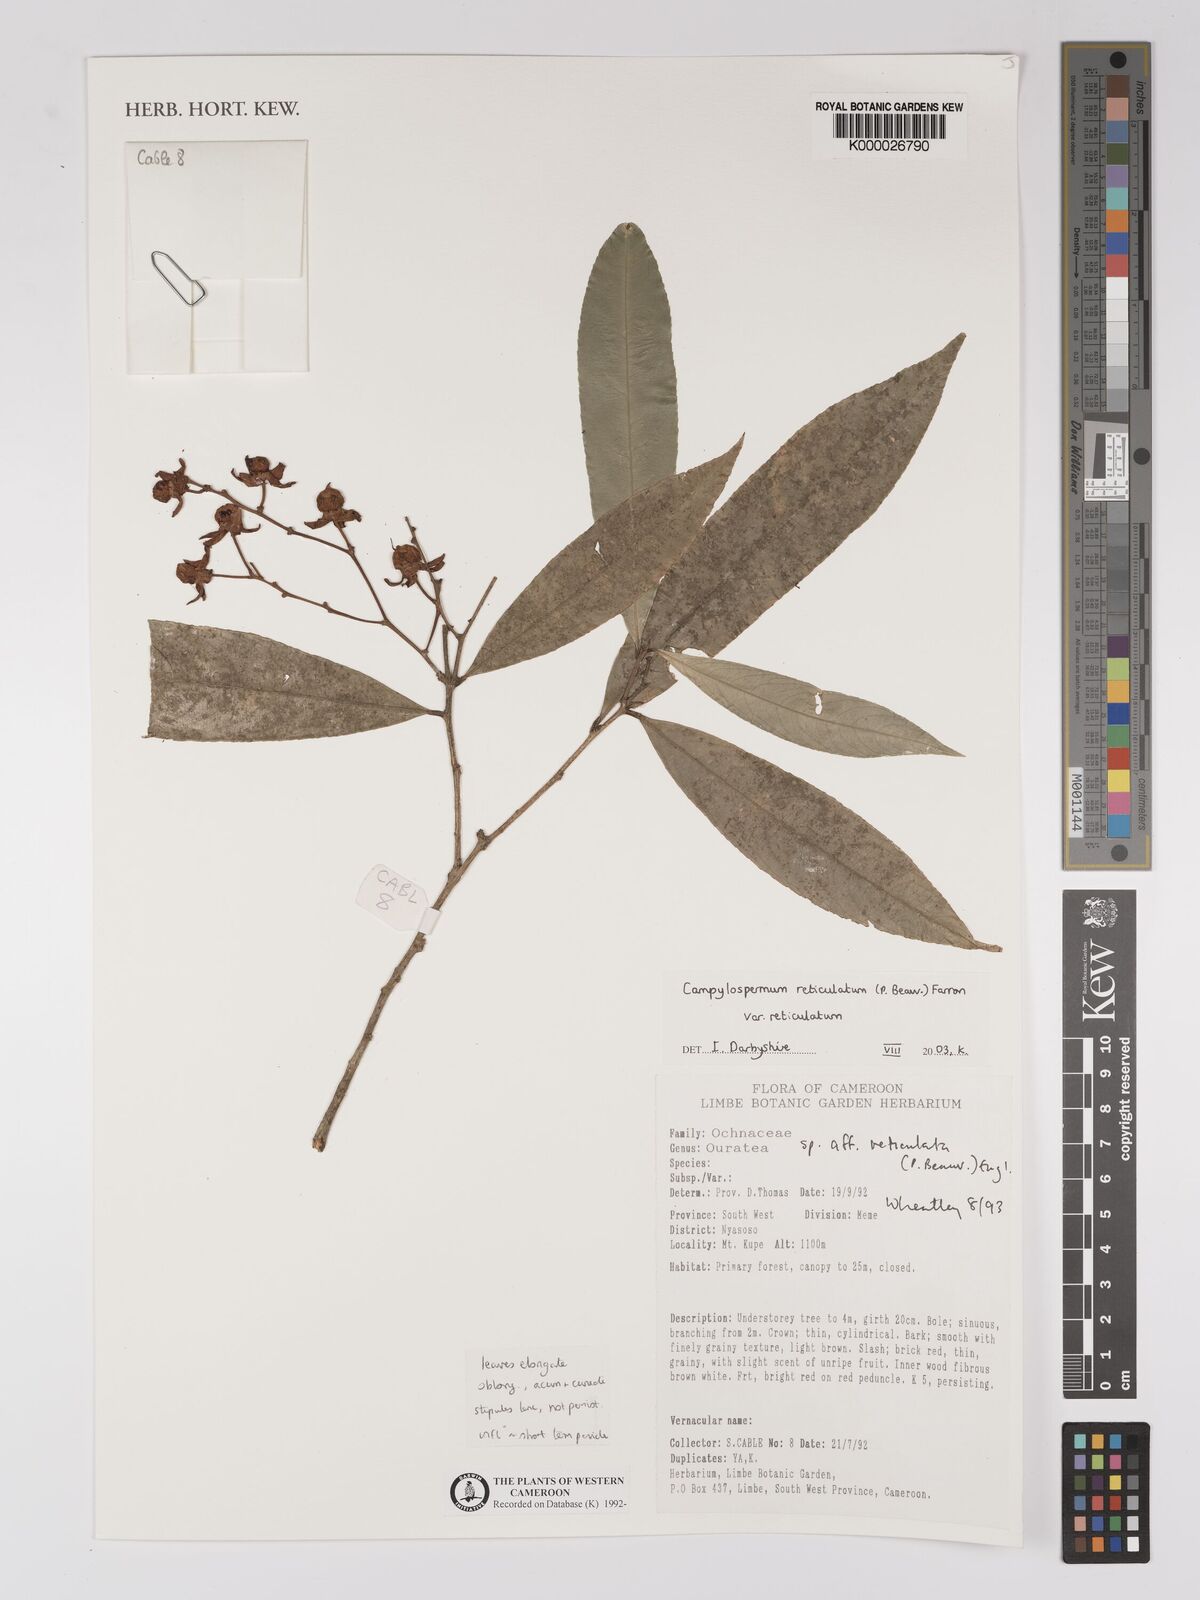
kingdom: Plantae
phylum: Tracheophyta
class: Magnoliopsida
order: Malpighiales
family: Violaceae
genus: Rinorea
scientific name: Rinorea dentata
